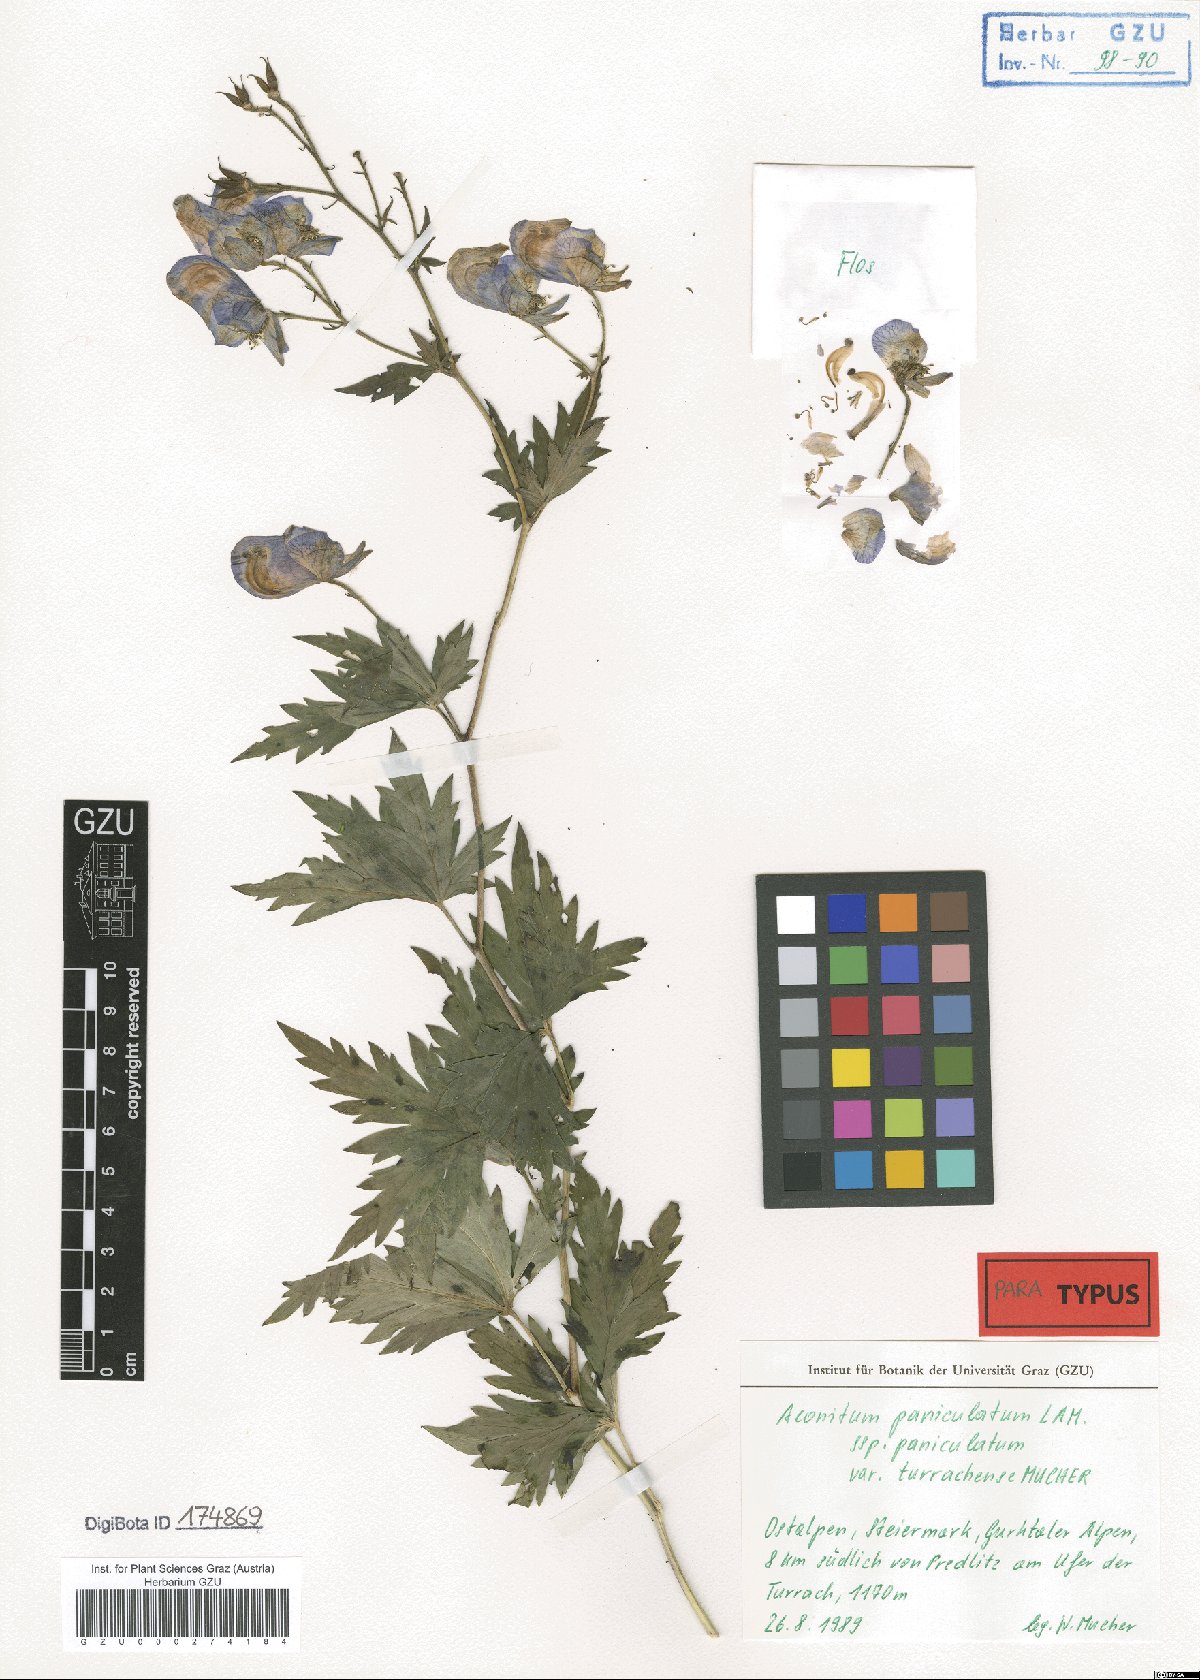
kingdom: Plantae
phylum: Tracheophyta
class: Magnoliopsida
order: Ranunculales
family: Ranunculaceae
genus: Aconitum
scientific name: Aconitum degenii
